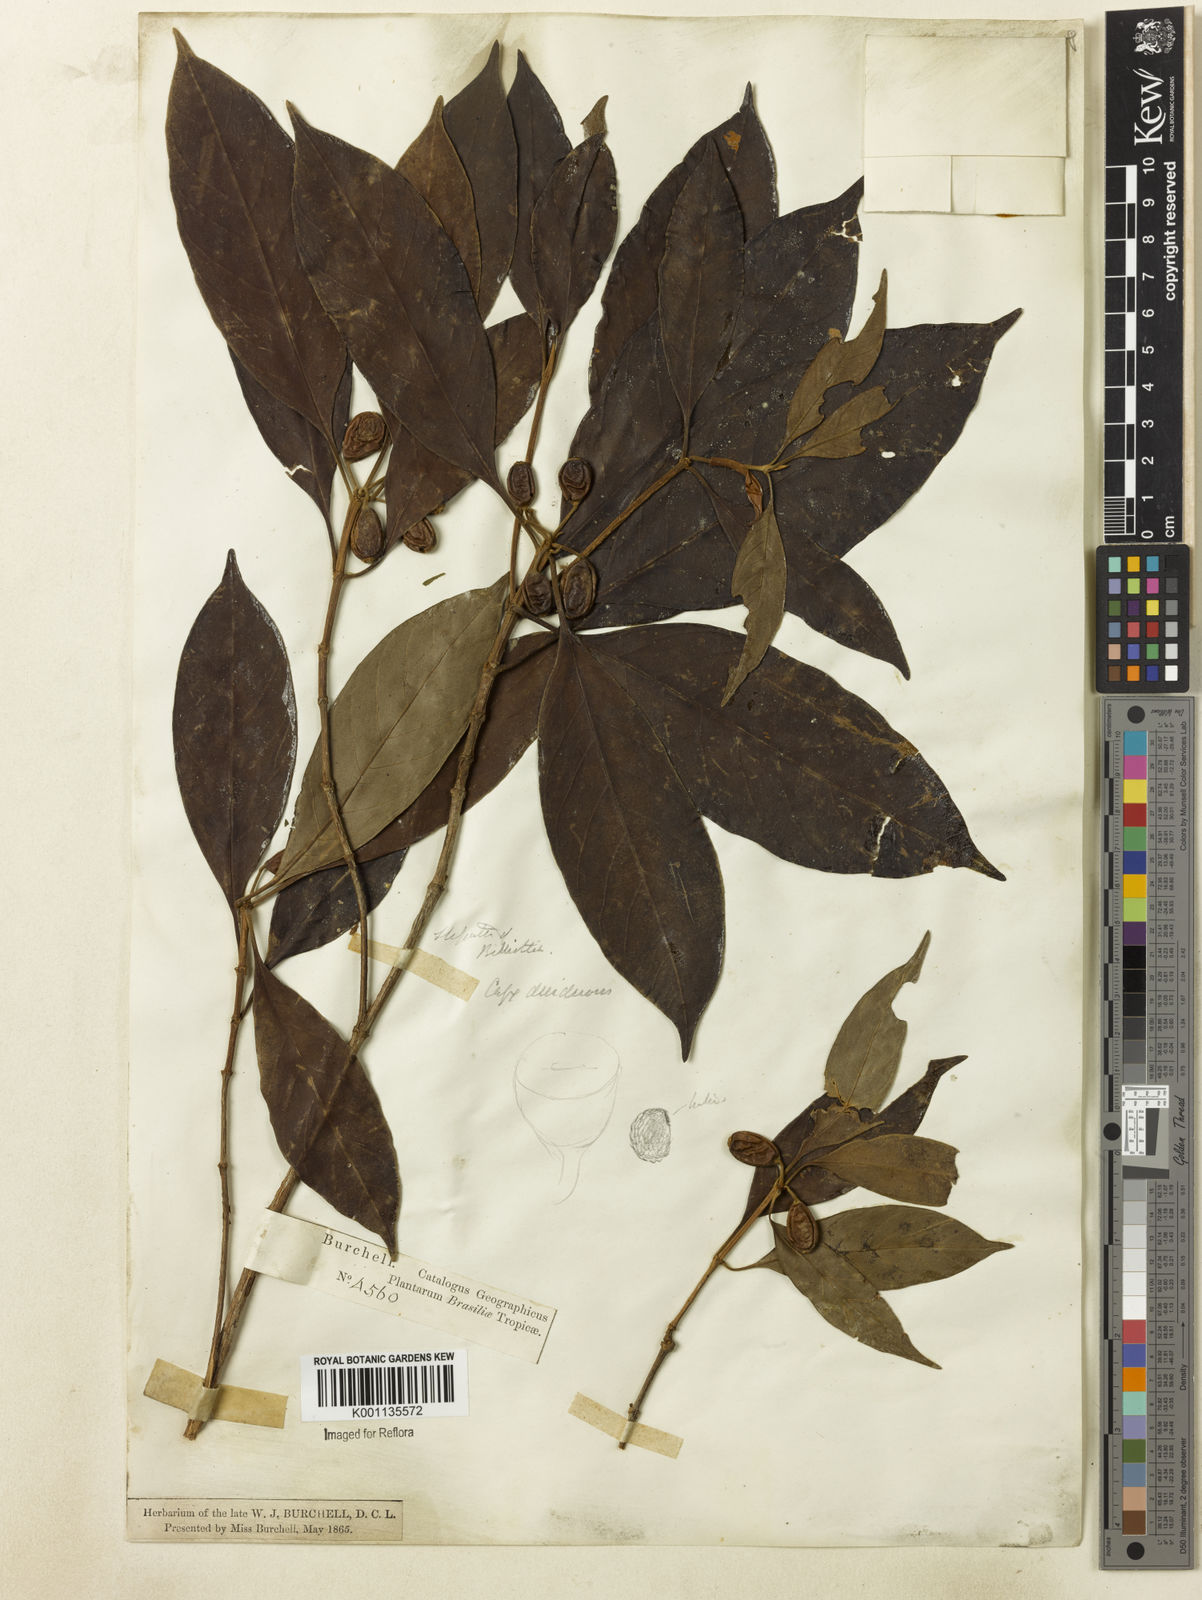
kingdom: Plantae
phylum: Tracheophyta
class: Magnoliopsida
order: Gentianales
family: Rubiaceae
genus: Amaioua
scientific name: Amaioua intermedia
